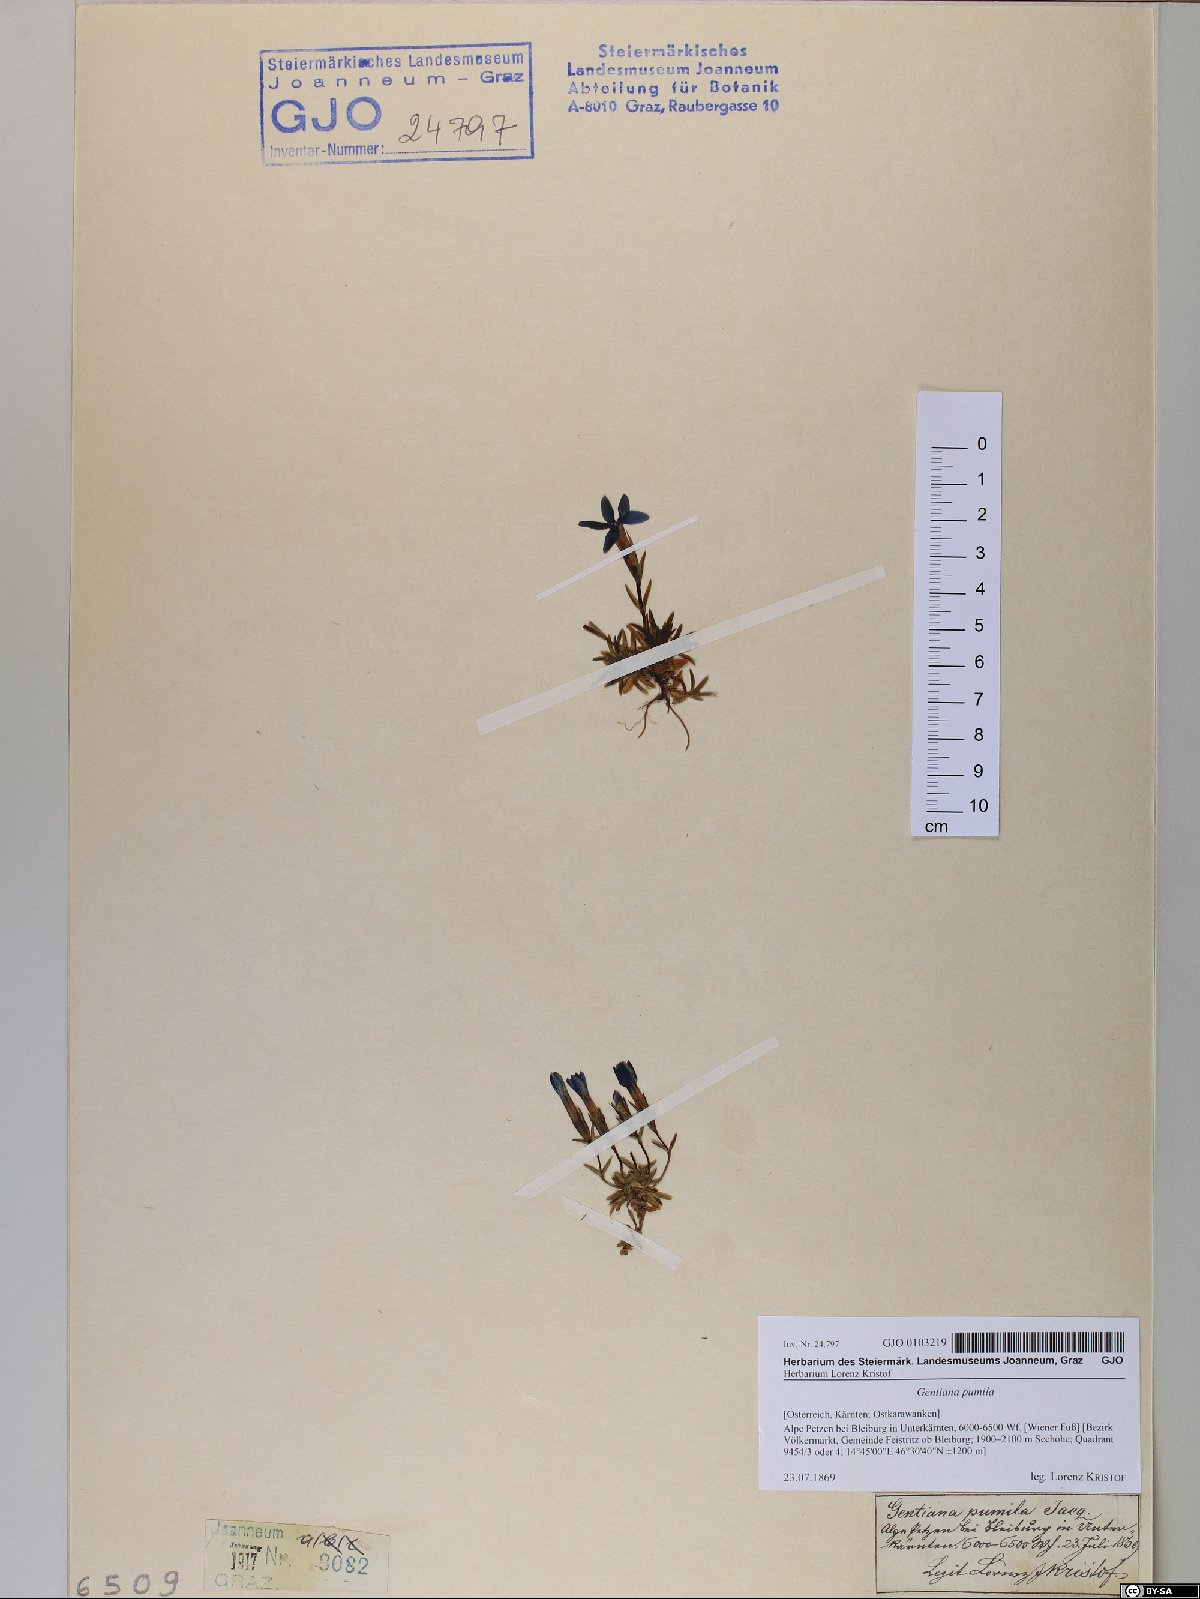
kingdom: Plantae
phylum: Tracheophyta
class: Magnoliopsida
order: Gentianales
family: Gentianaceae
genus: Gentiana
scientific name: Gentiana pumila
